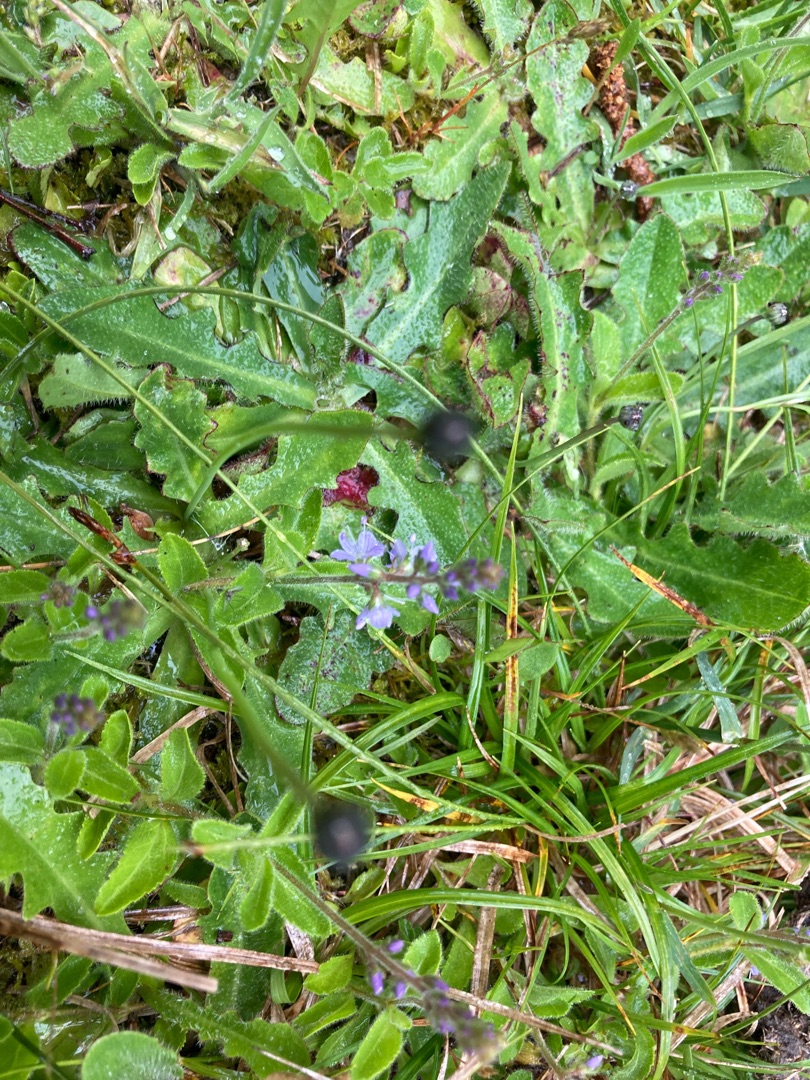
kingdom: Plantae
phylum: Tracheophyta
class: Magnoliopsida
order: Lamiales
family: Plantaginaceae
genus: Veronica
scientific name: Veronica officinalis
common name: Læge-ærenpris
